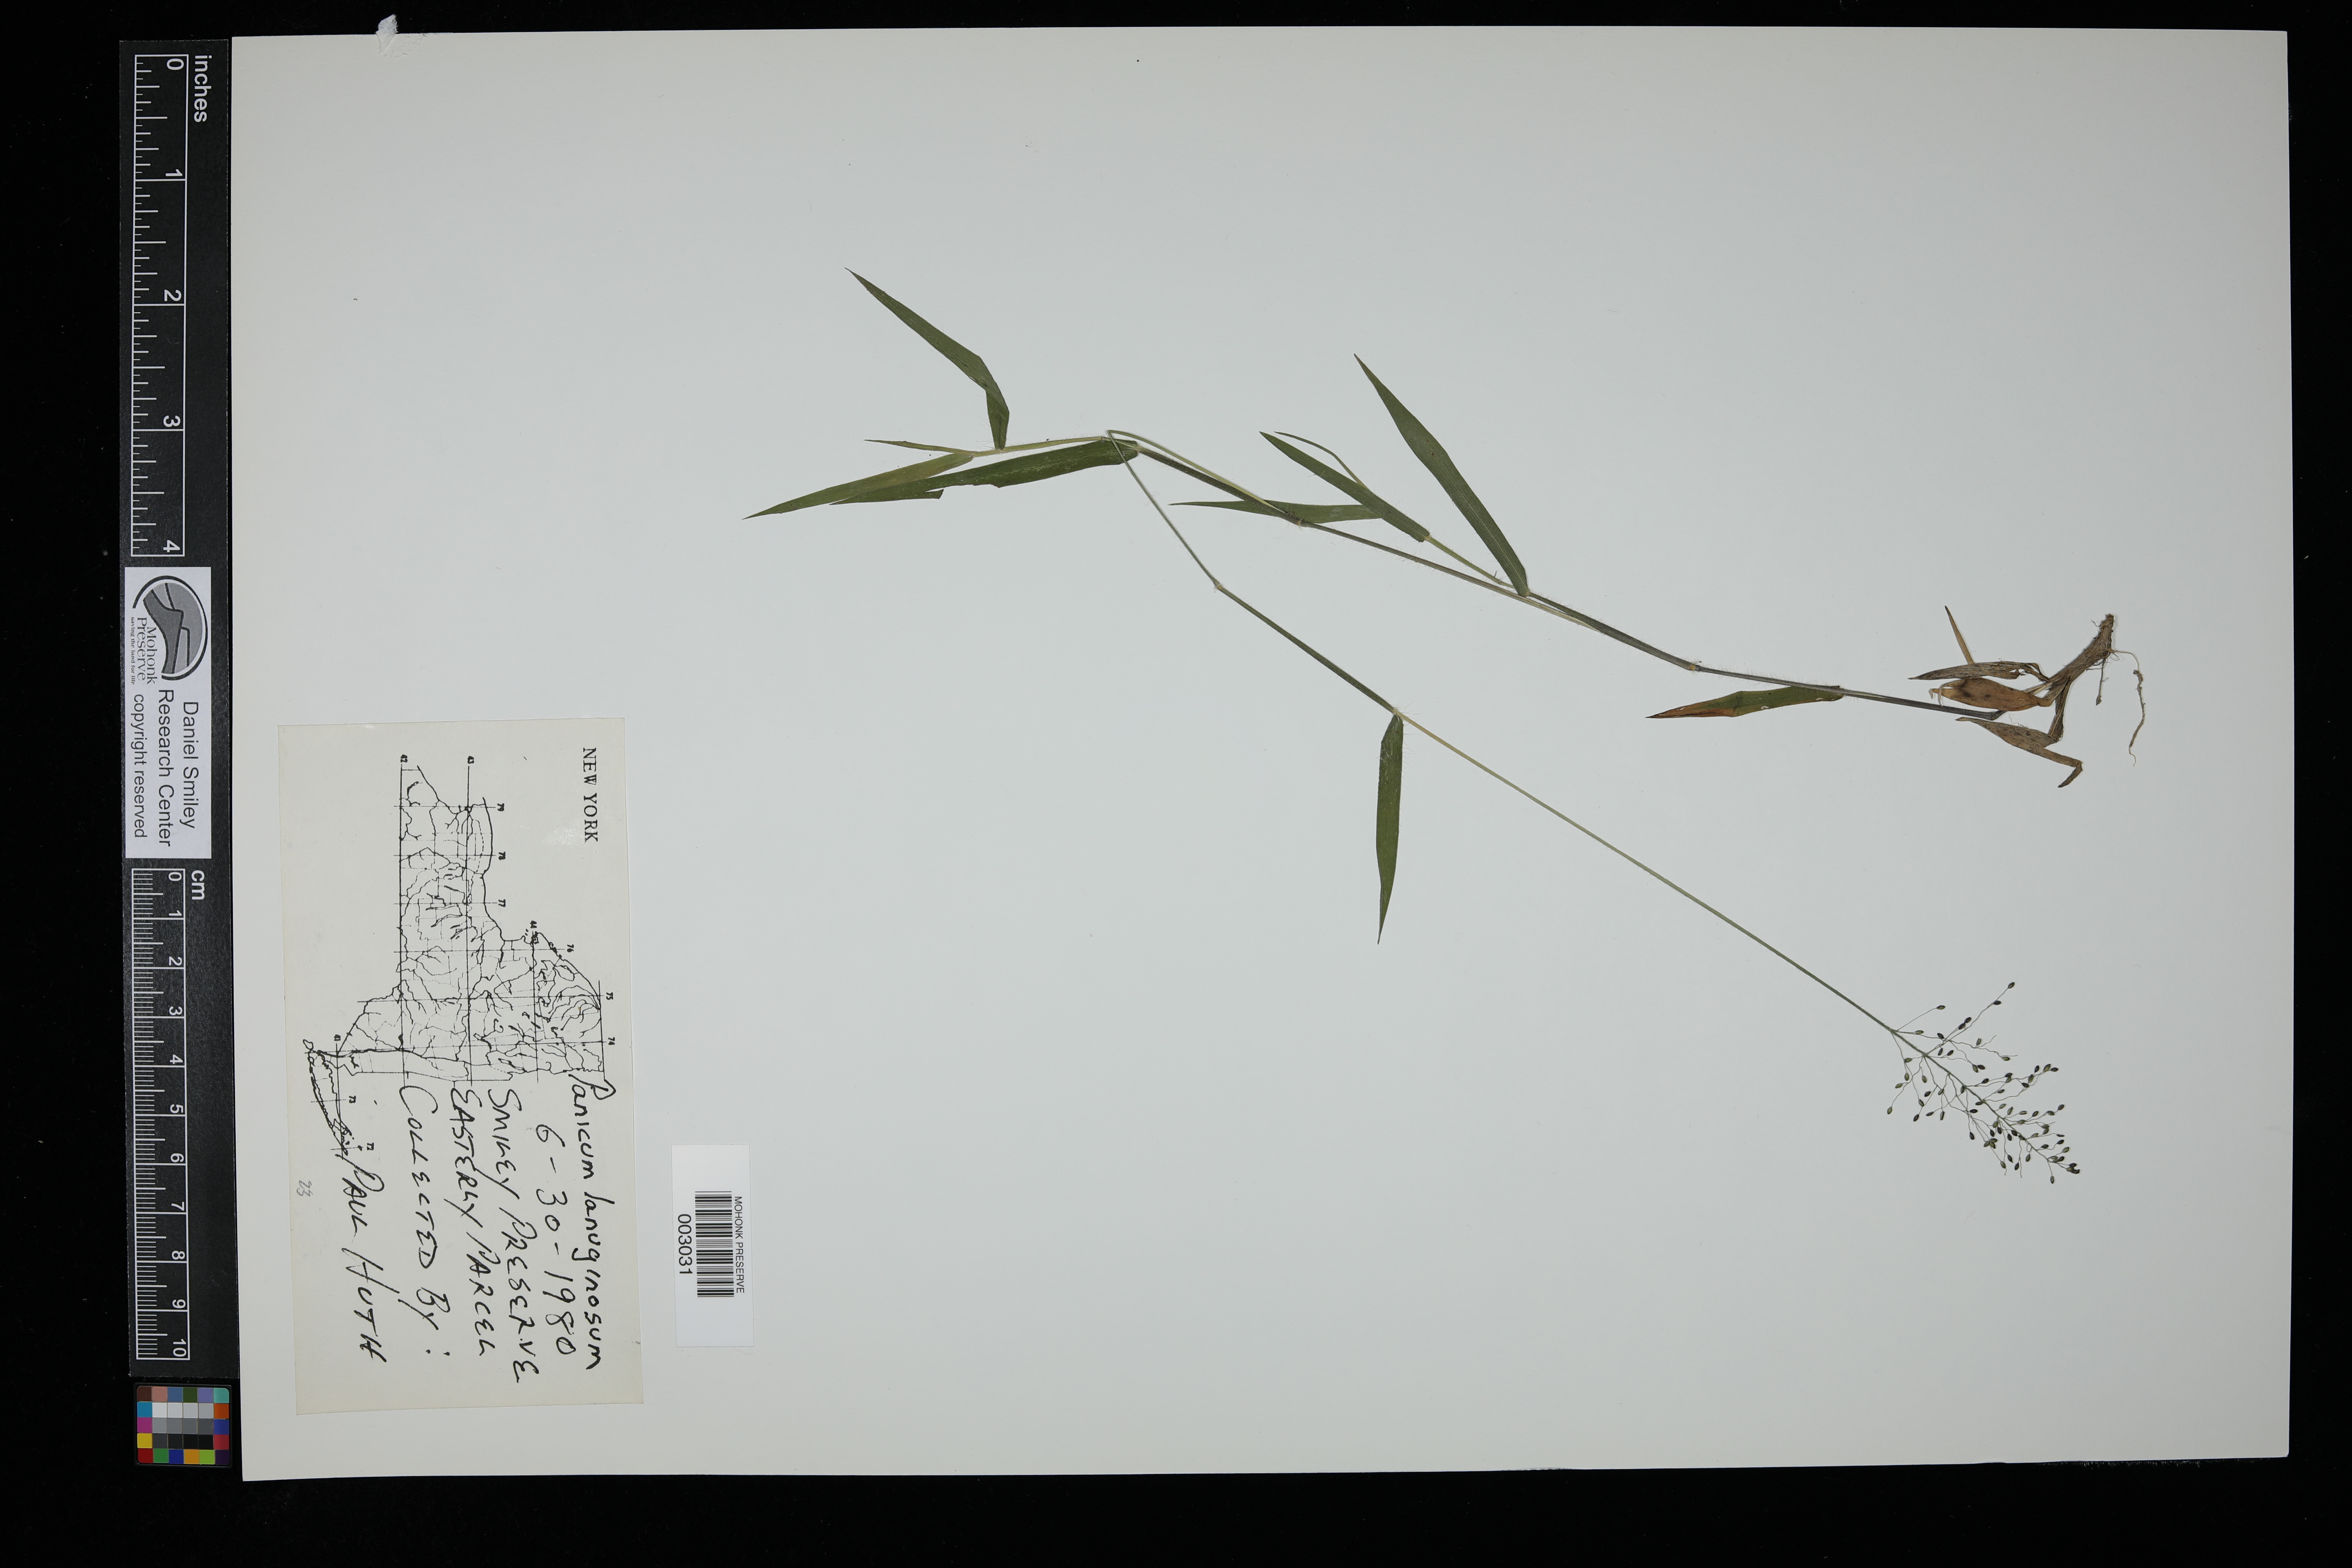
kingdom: Plantae
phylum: Tracheophyta
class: Liliopsida
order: Poales
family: Poaceae
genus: Dichanthelium
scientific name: Dichanthelium acuminatum
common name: Hairy panic grass
